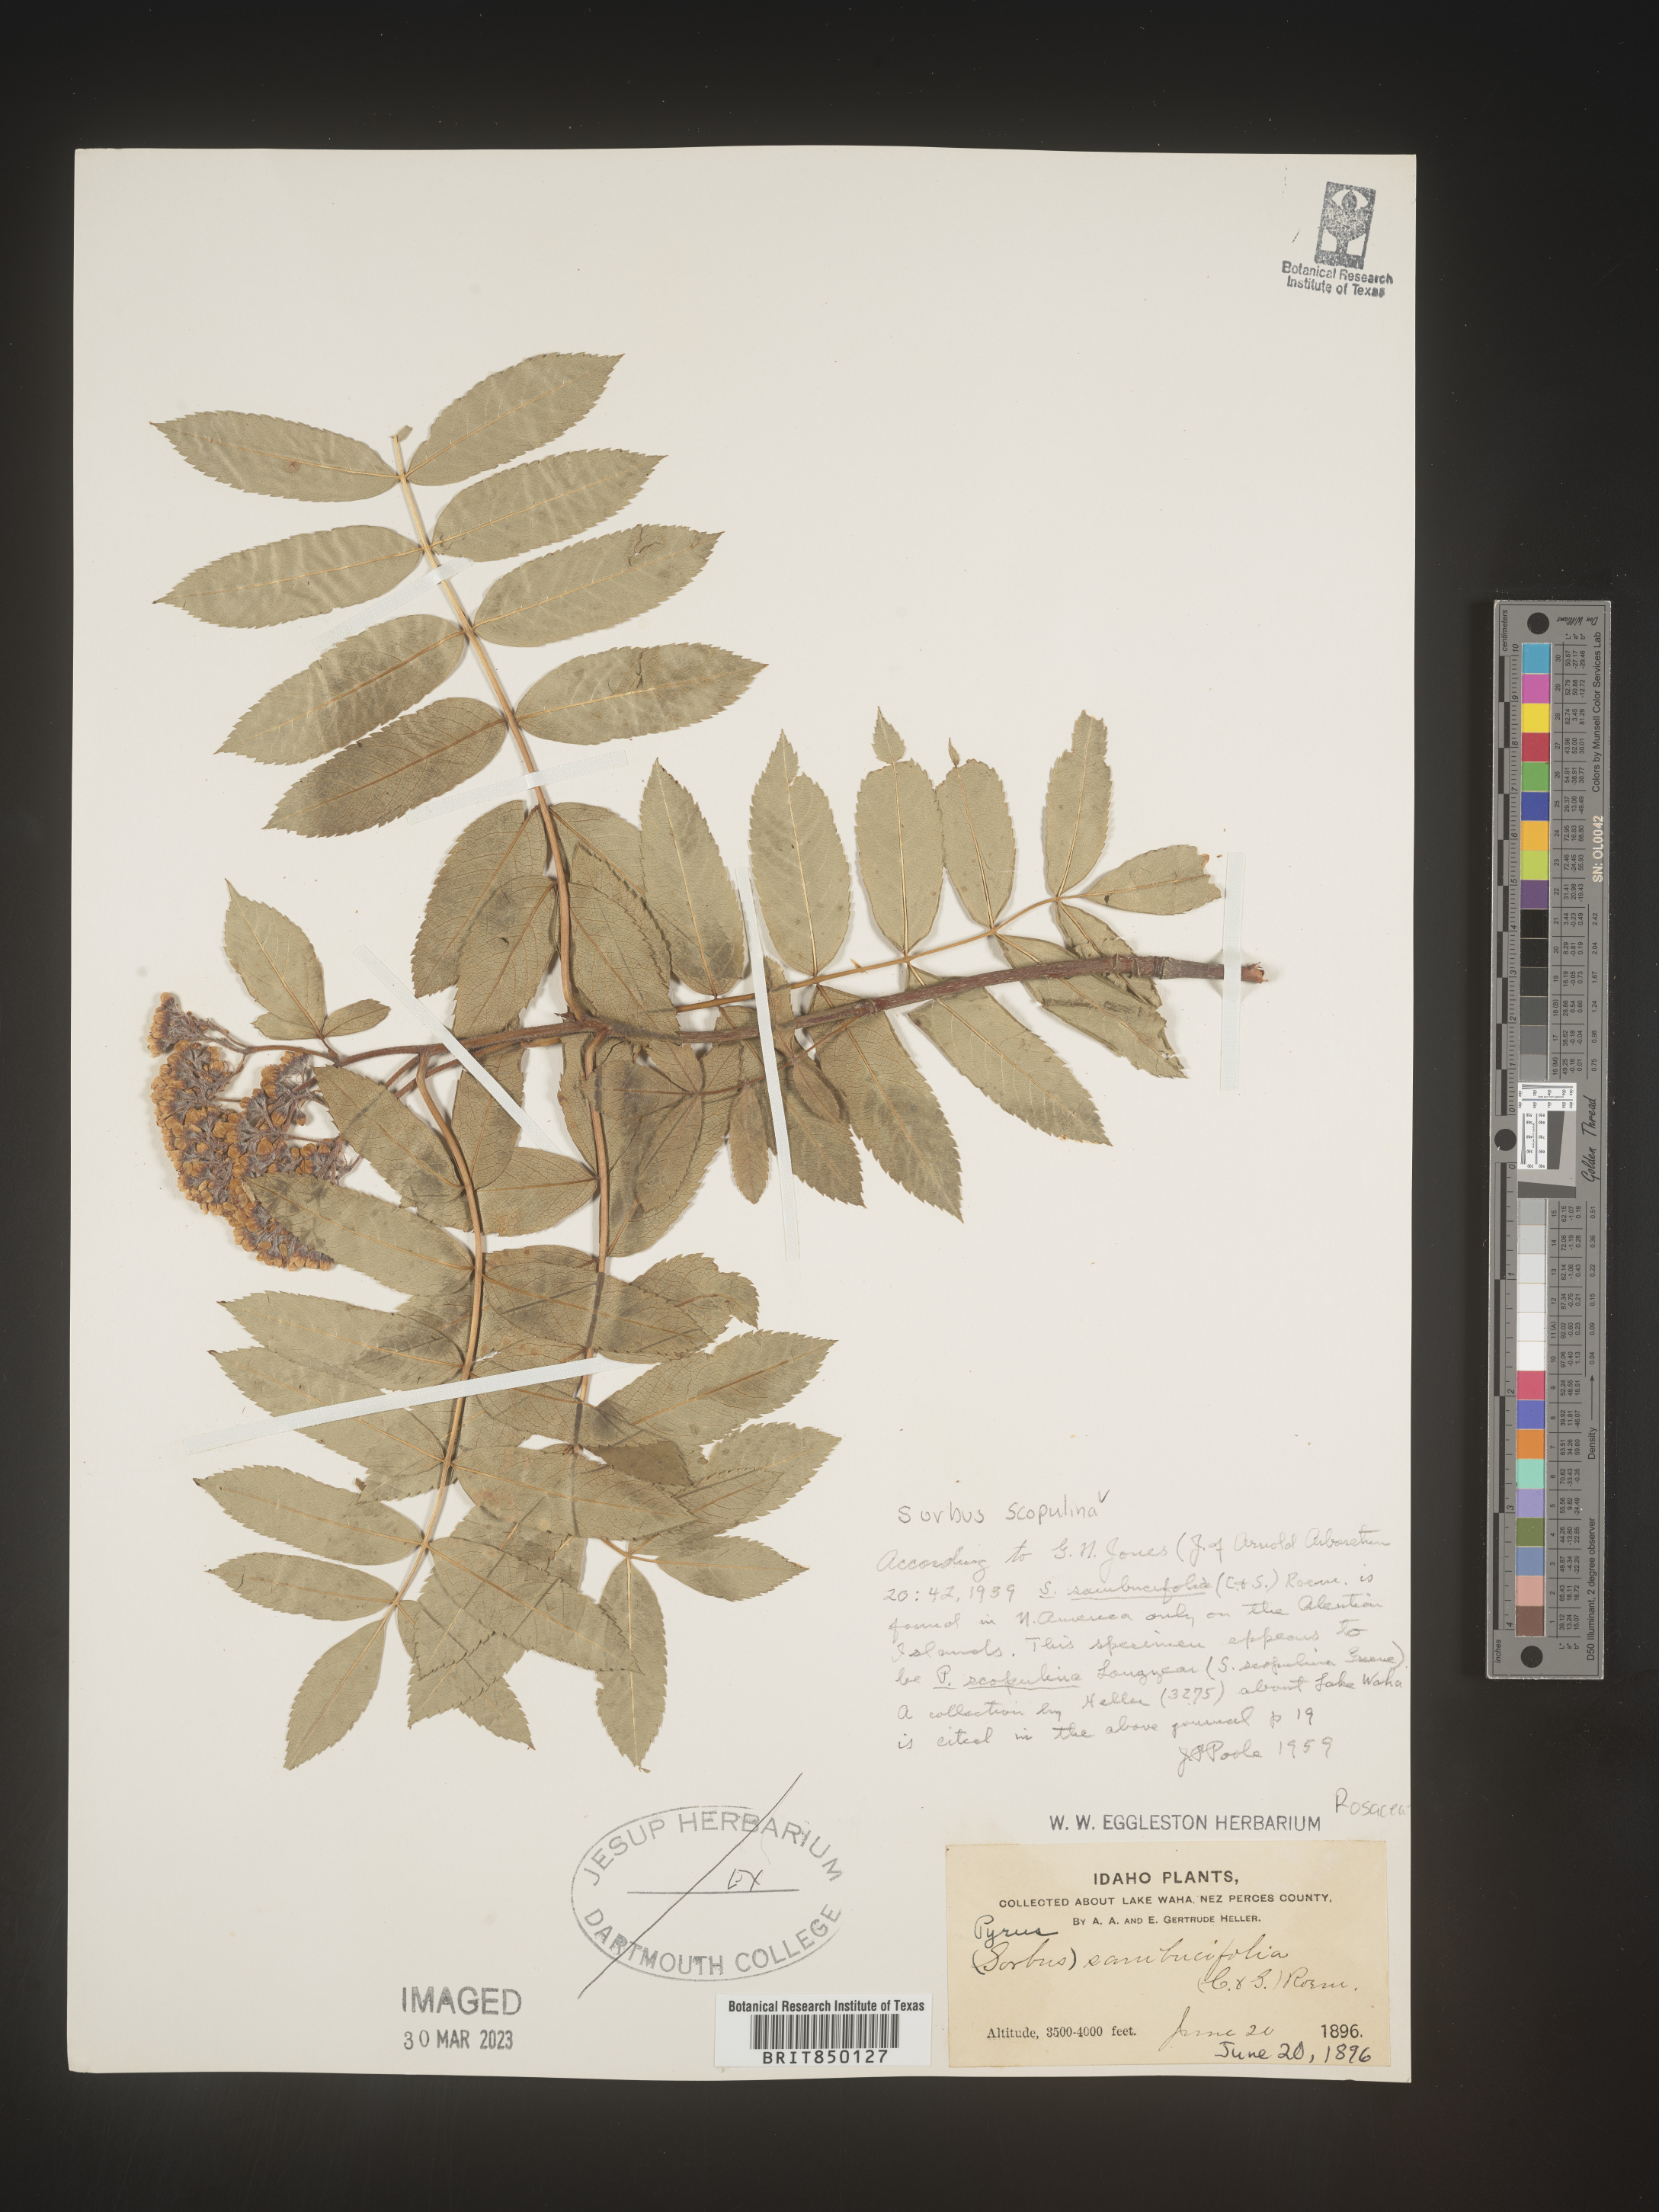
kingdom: Plantae
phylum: Tracheophyta
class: Magnoliopsida
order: Rosales
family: Rosaceae
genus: Sorbus
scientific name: Sorbus scopulina
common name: Greene's mountain-ash
